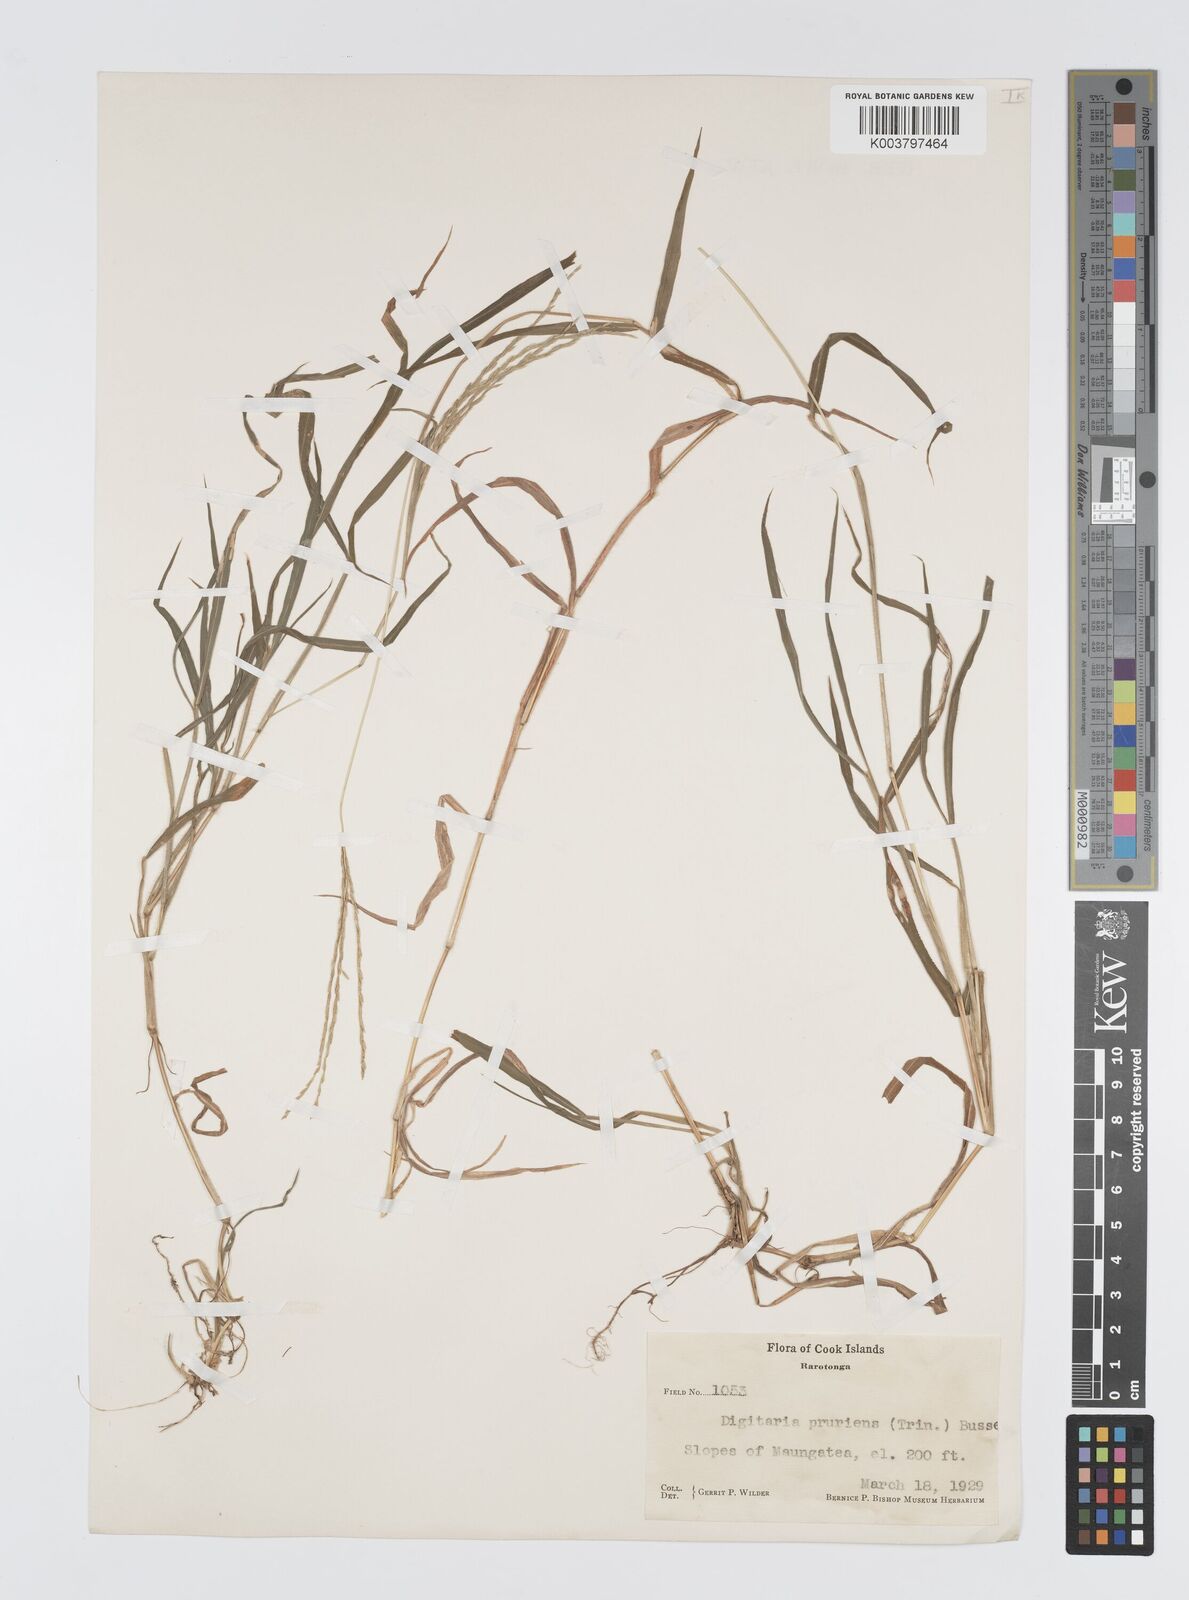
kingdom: Plantae
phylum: Tracheophyta
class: Liliopsida
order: Poales
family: Poaceae
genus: Digitaria
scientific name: Digitaria setigera
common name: East indian crabgrass
